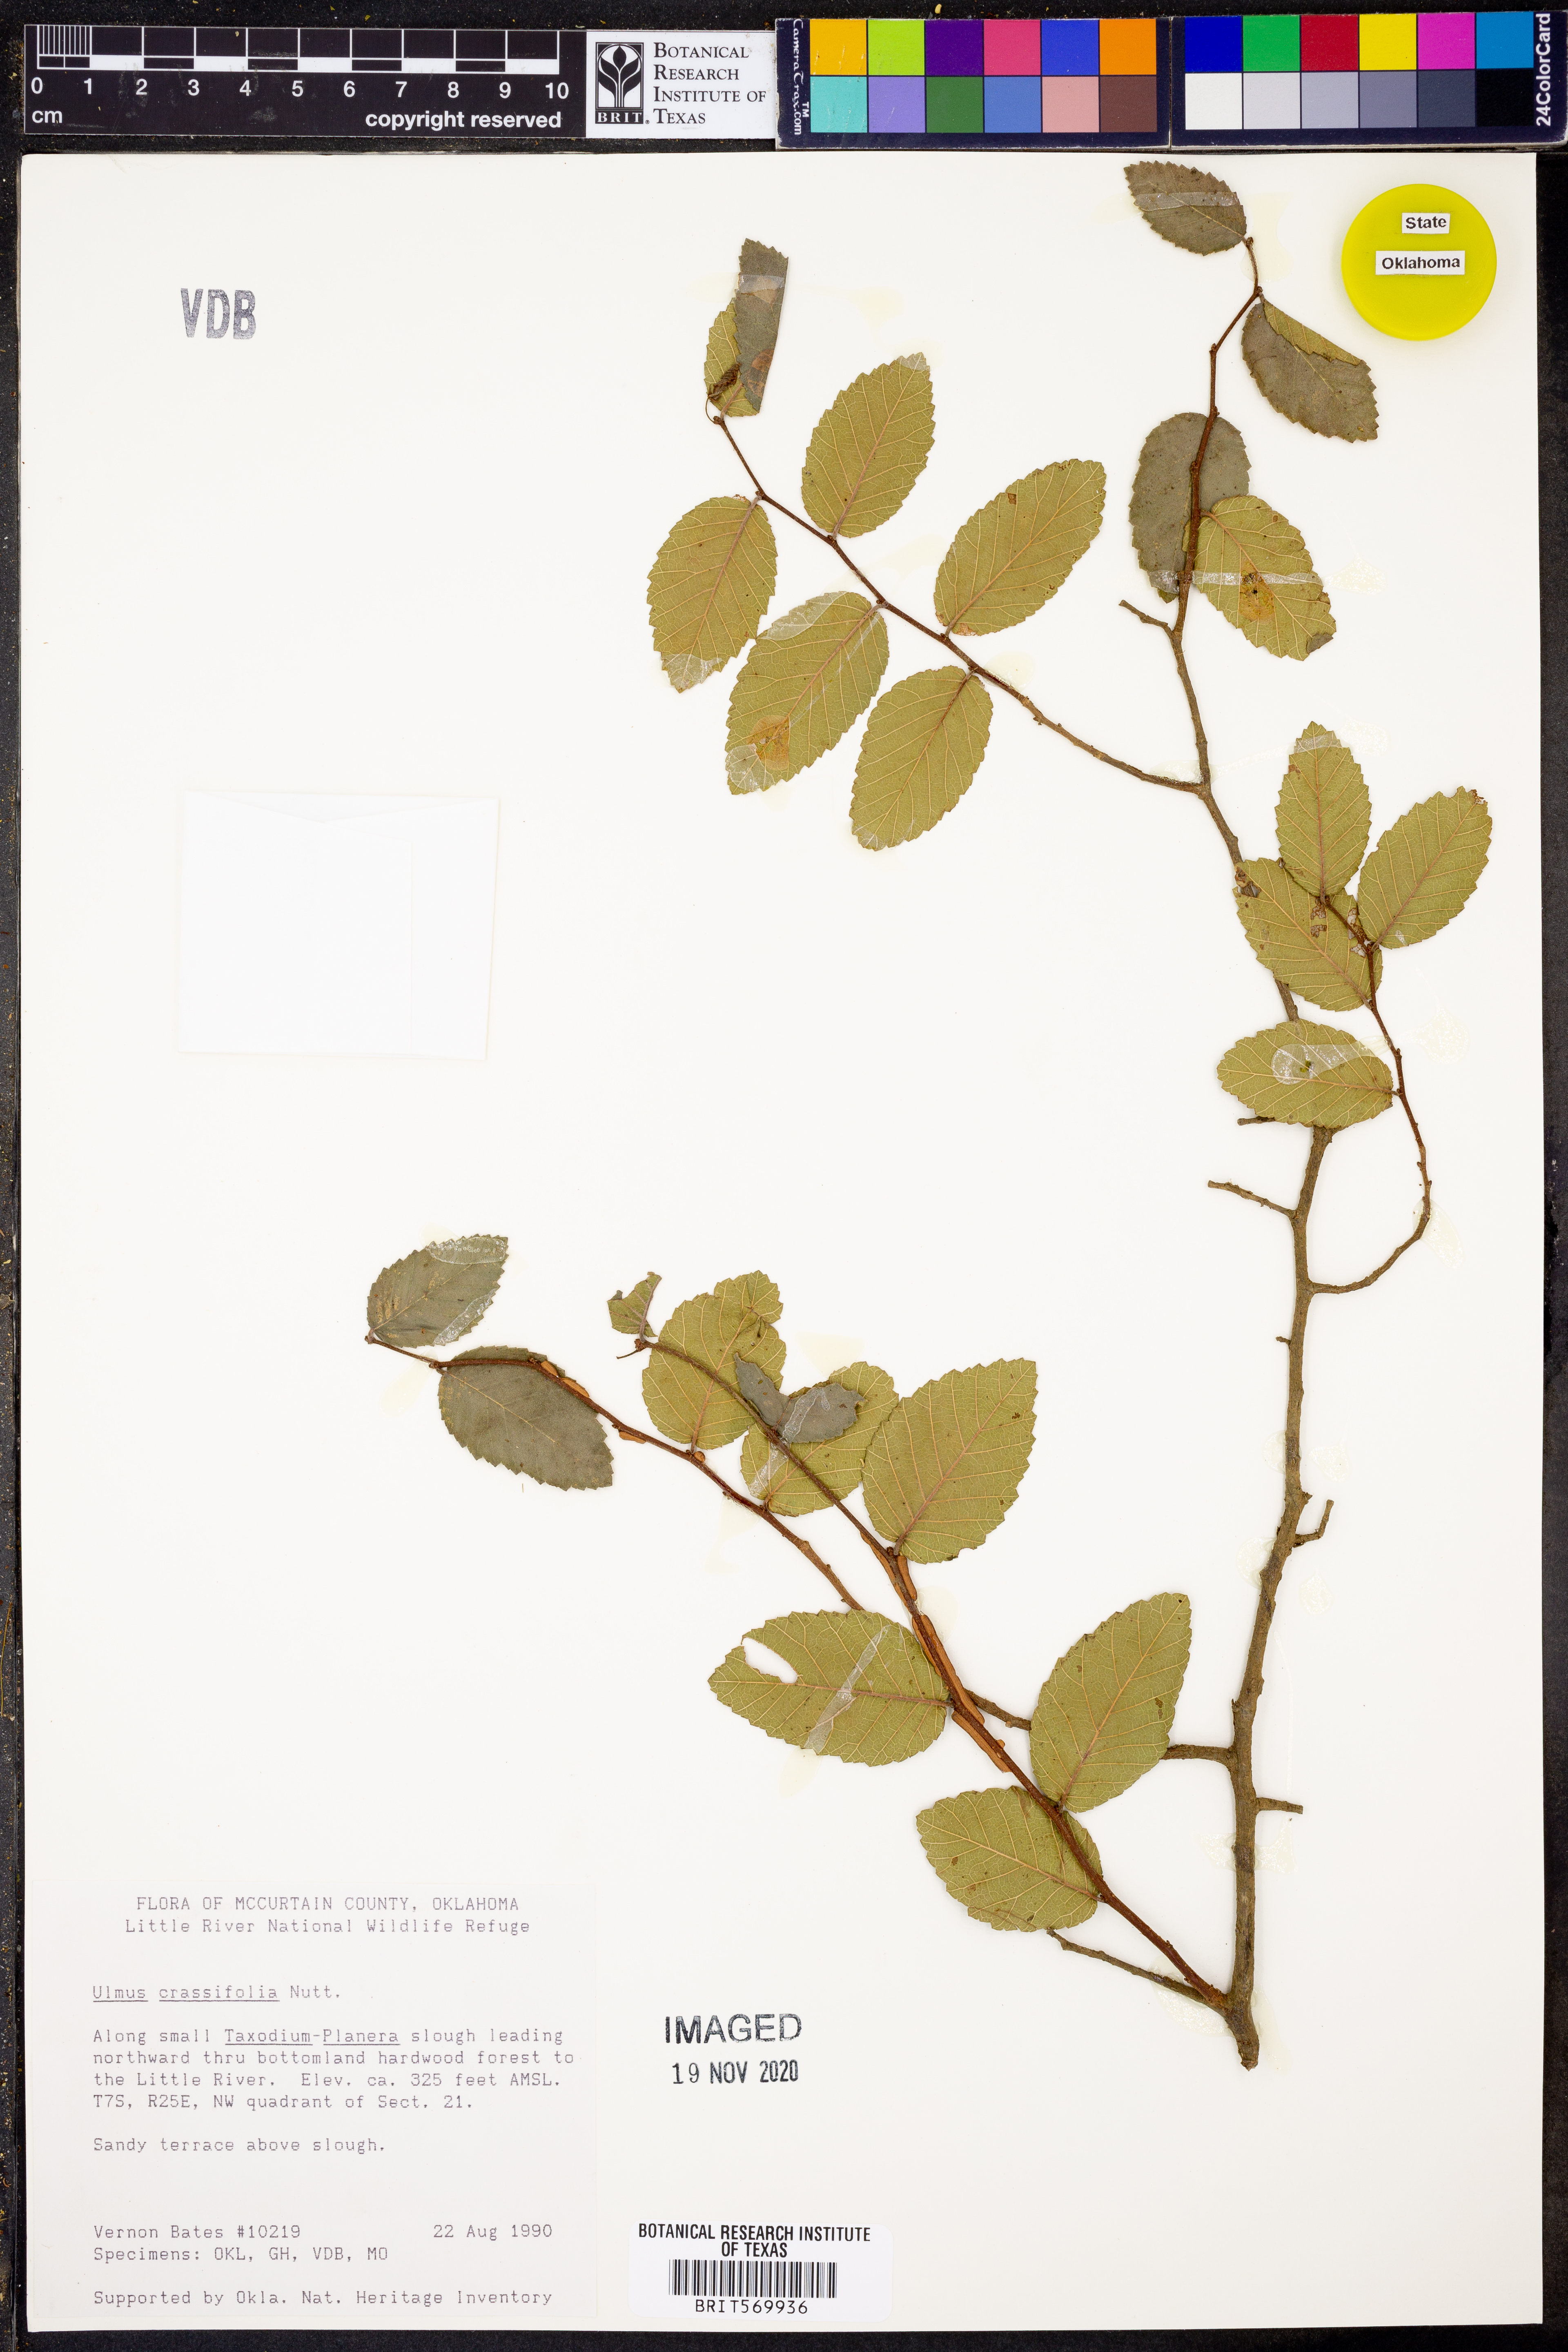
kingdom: Plantae
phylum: Tracheophyta
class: Magnoliopsida
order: Rosales
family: Ulmaceae
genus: Ulmus
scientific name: Ulmus crassifolia
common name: Basket elm
